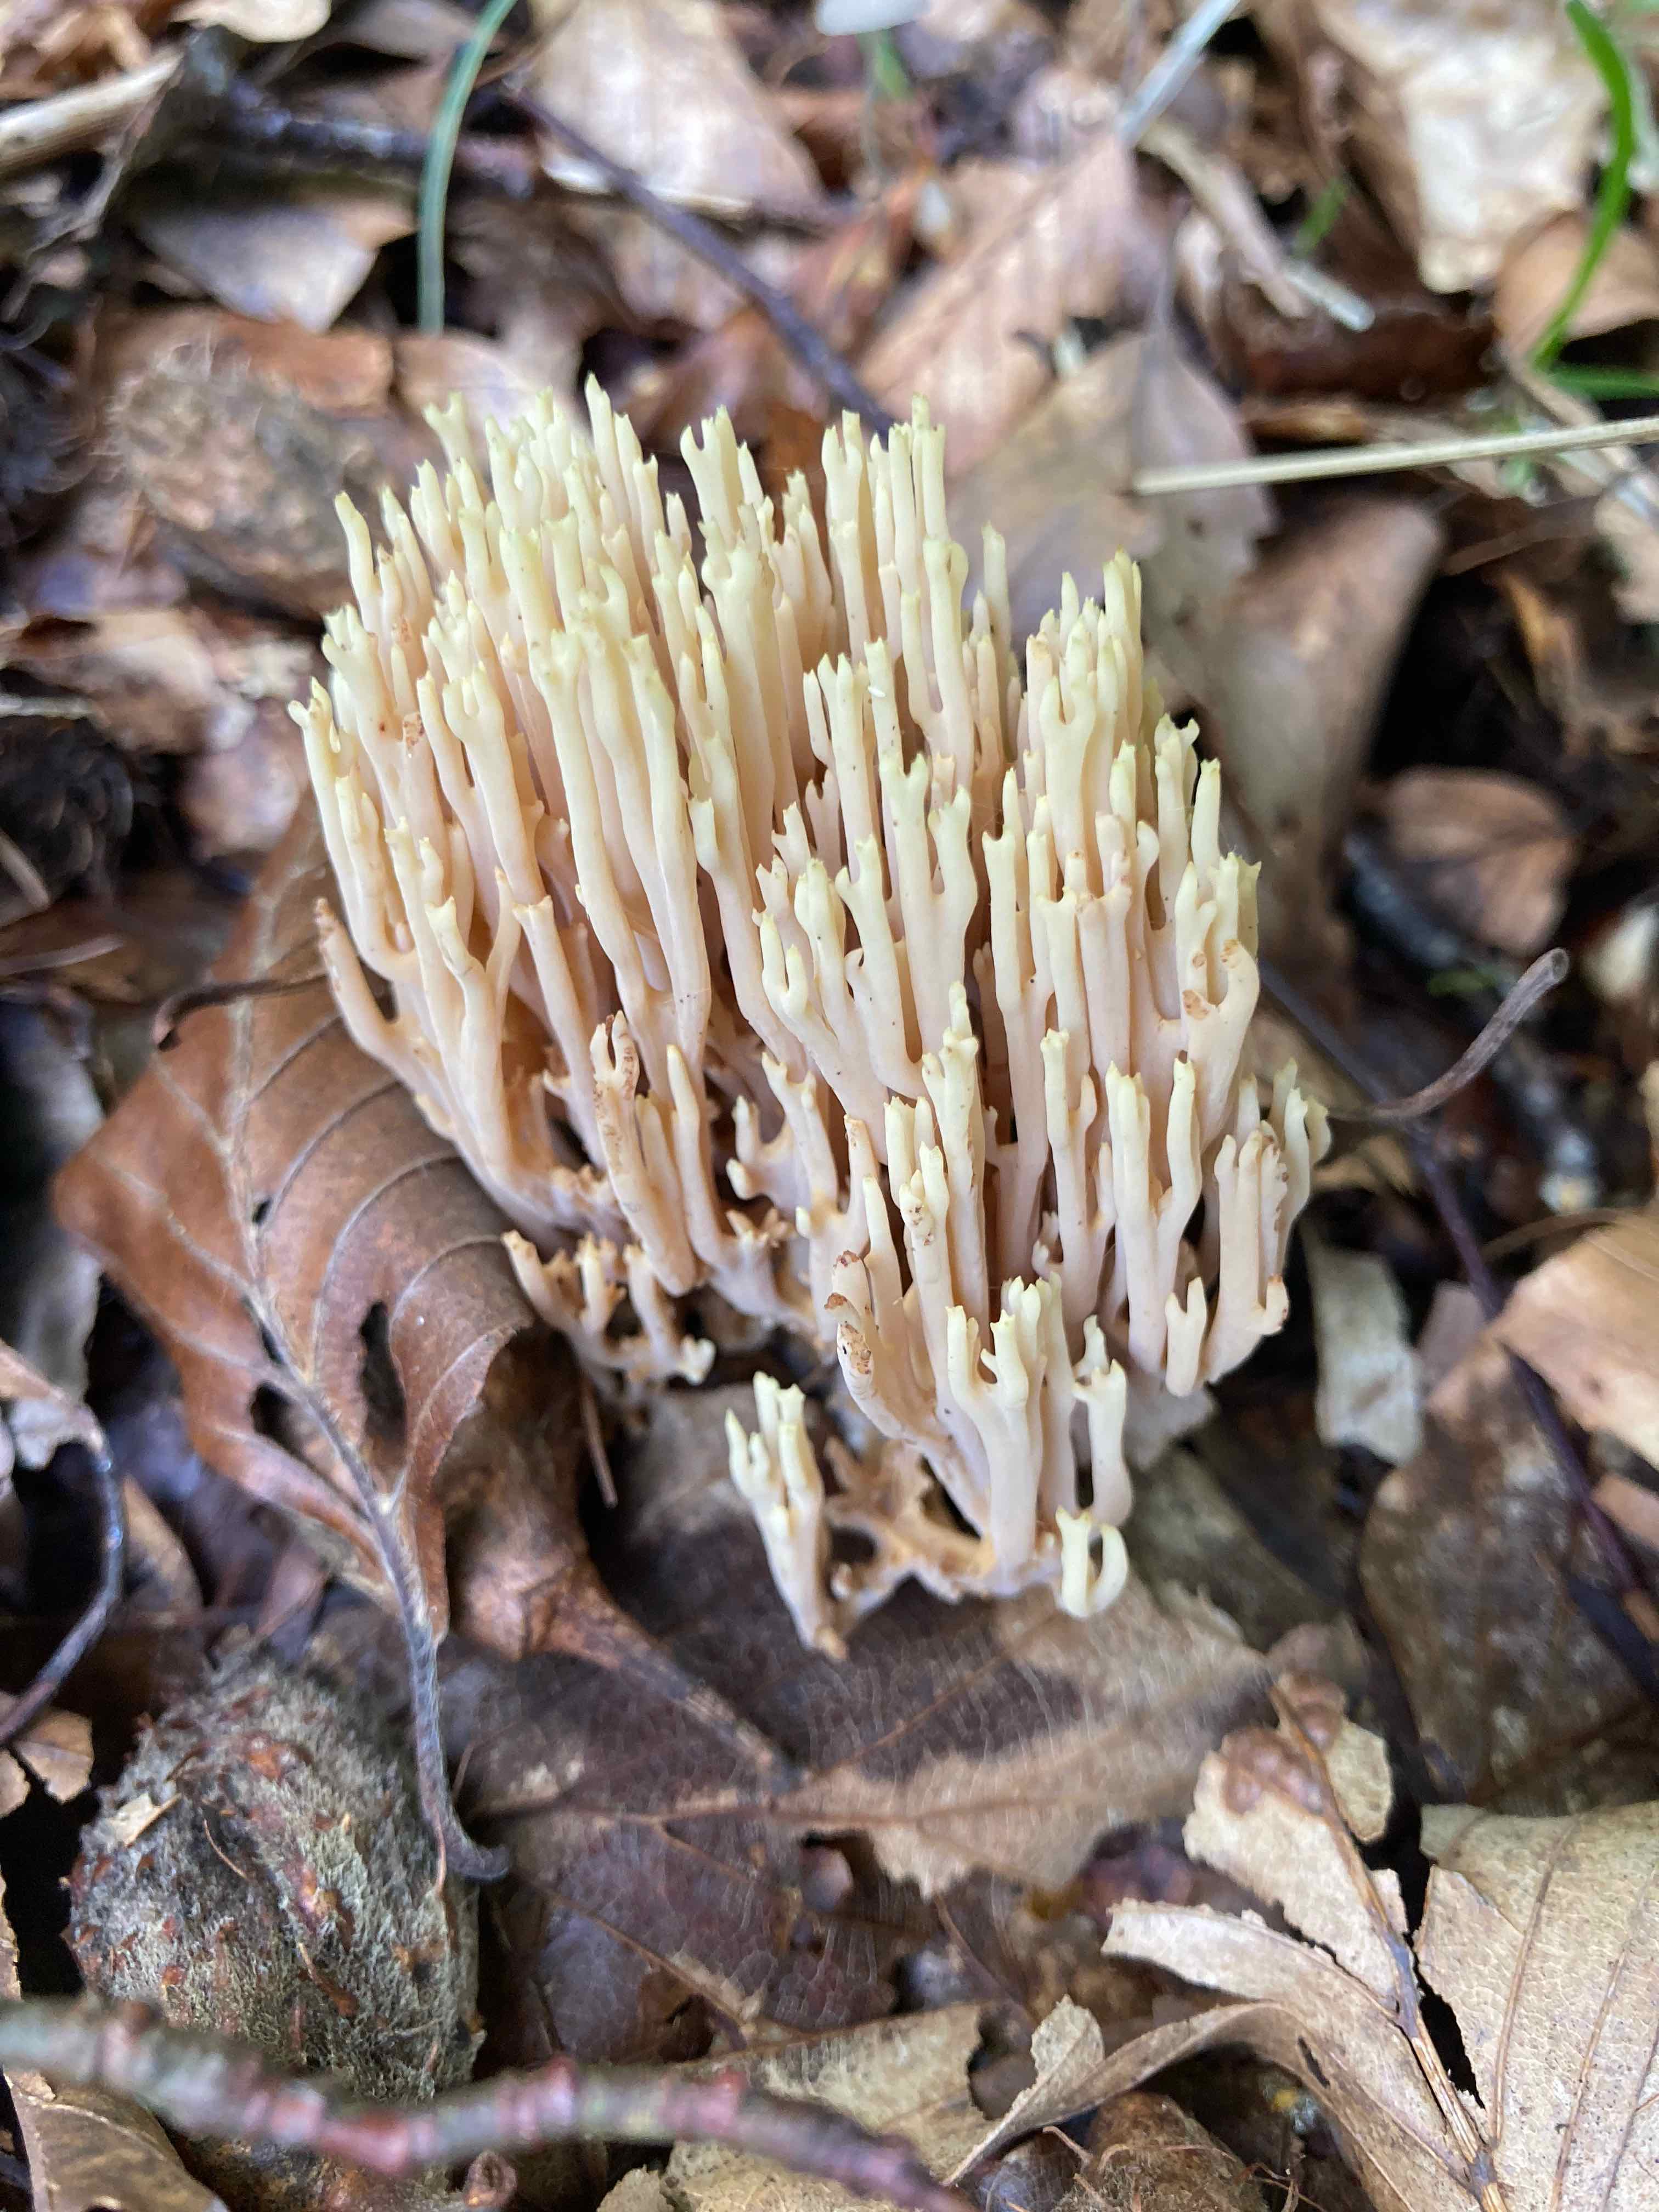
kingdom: Fungi
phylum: Basidiomycota
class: Agaricomycetes
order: Gomphales
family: Gomphaceae
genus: Ramaria
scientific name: Ramaria stricta
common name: rank koralsvamp
